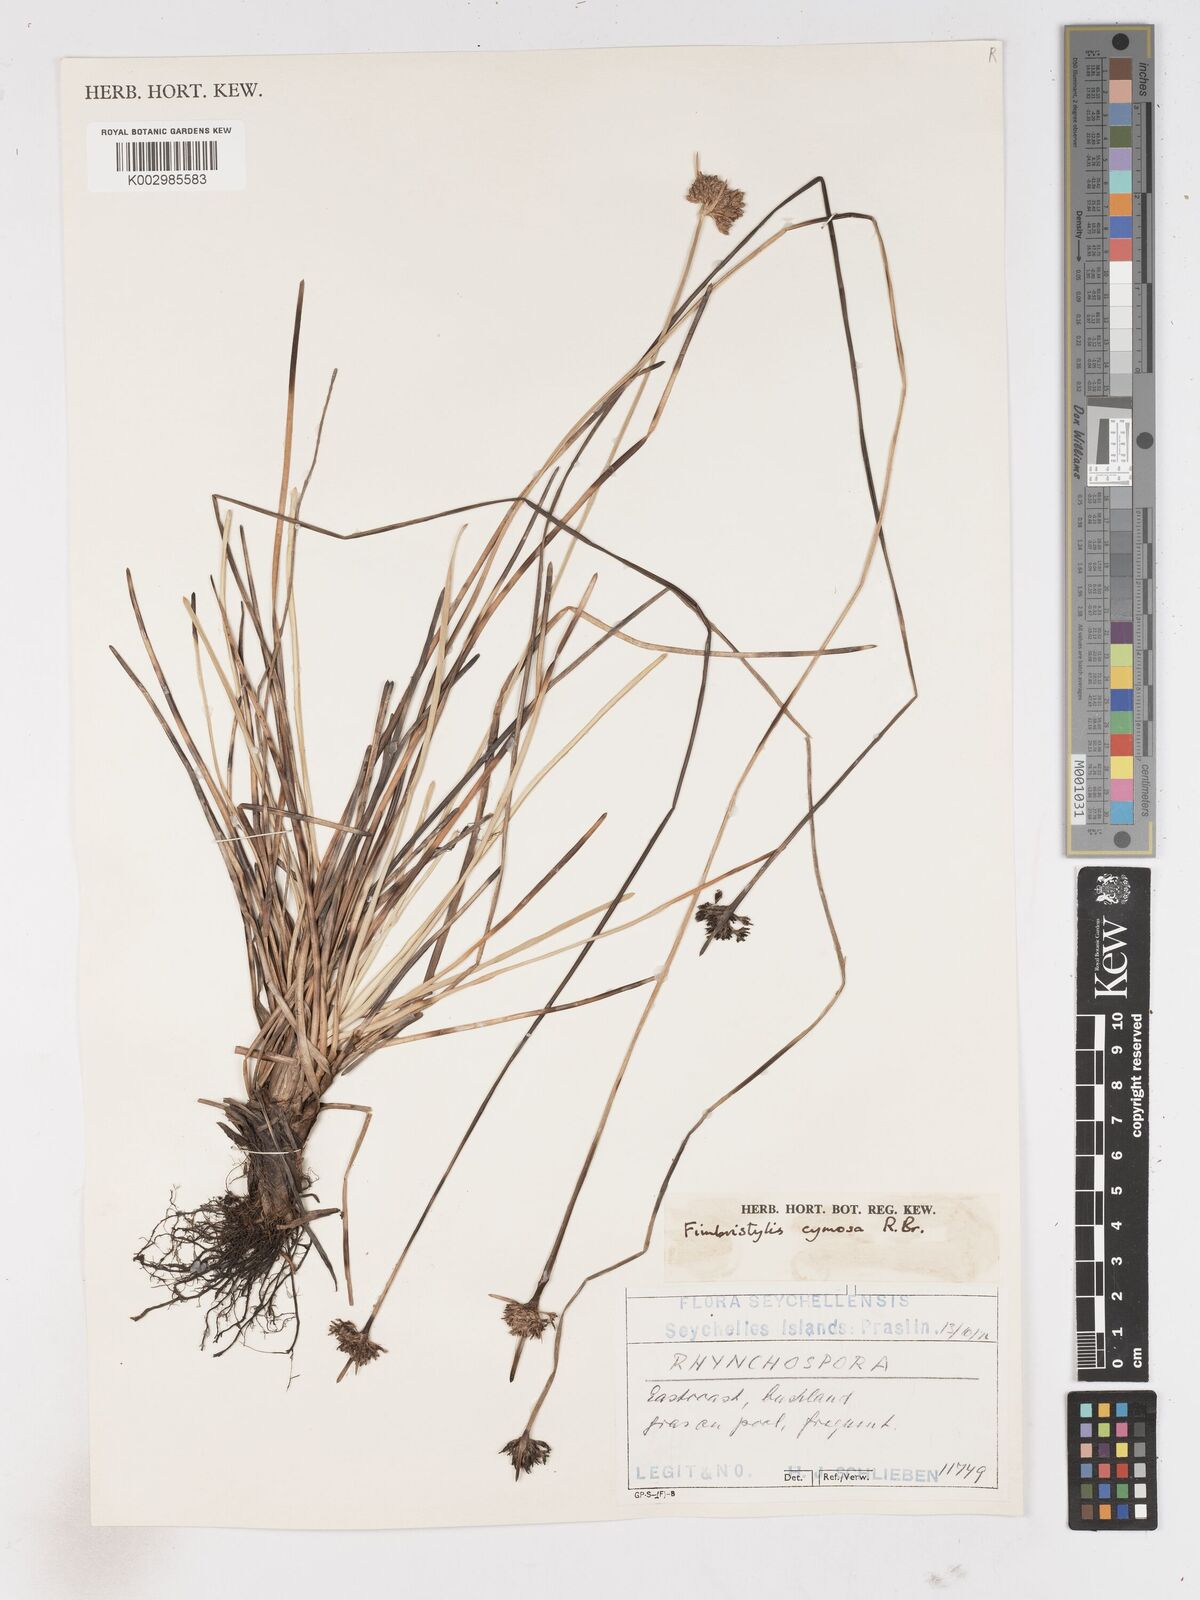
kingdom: Plantae
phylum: Tracheophyta
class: Liliopsida
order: Poales
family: Cyperaceae
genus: Fimbristylis
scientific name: Fimbristylis cymosa
